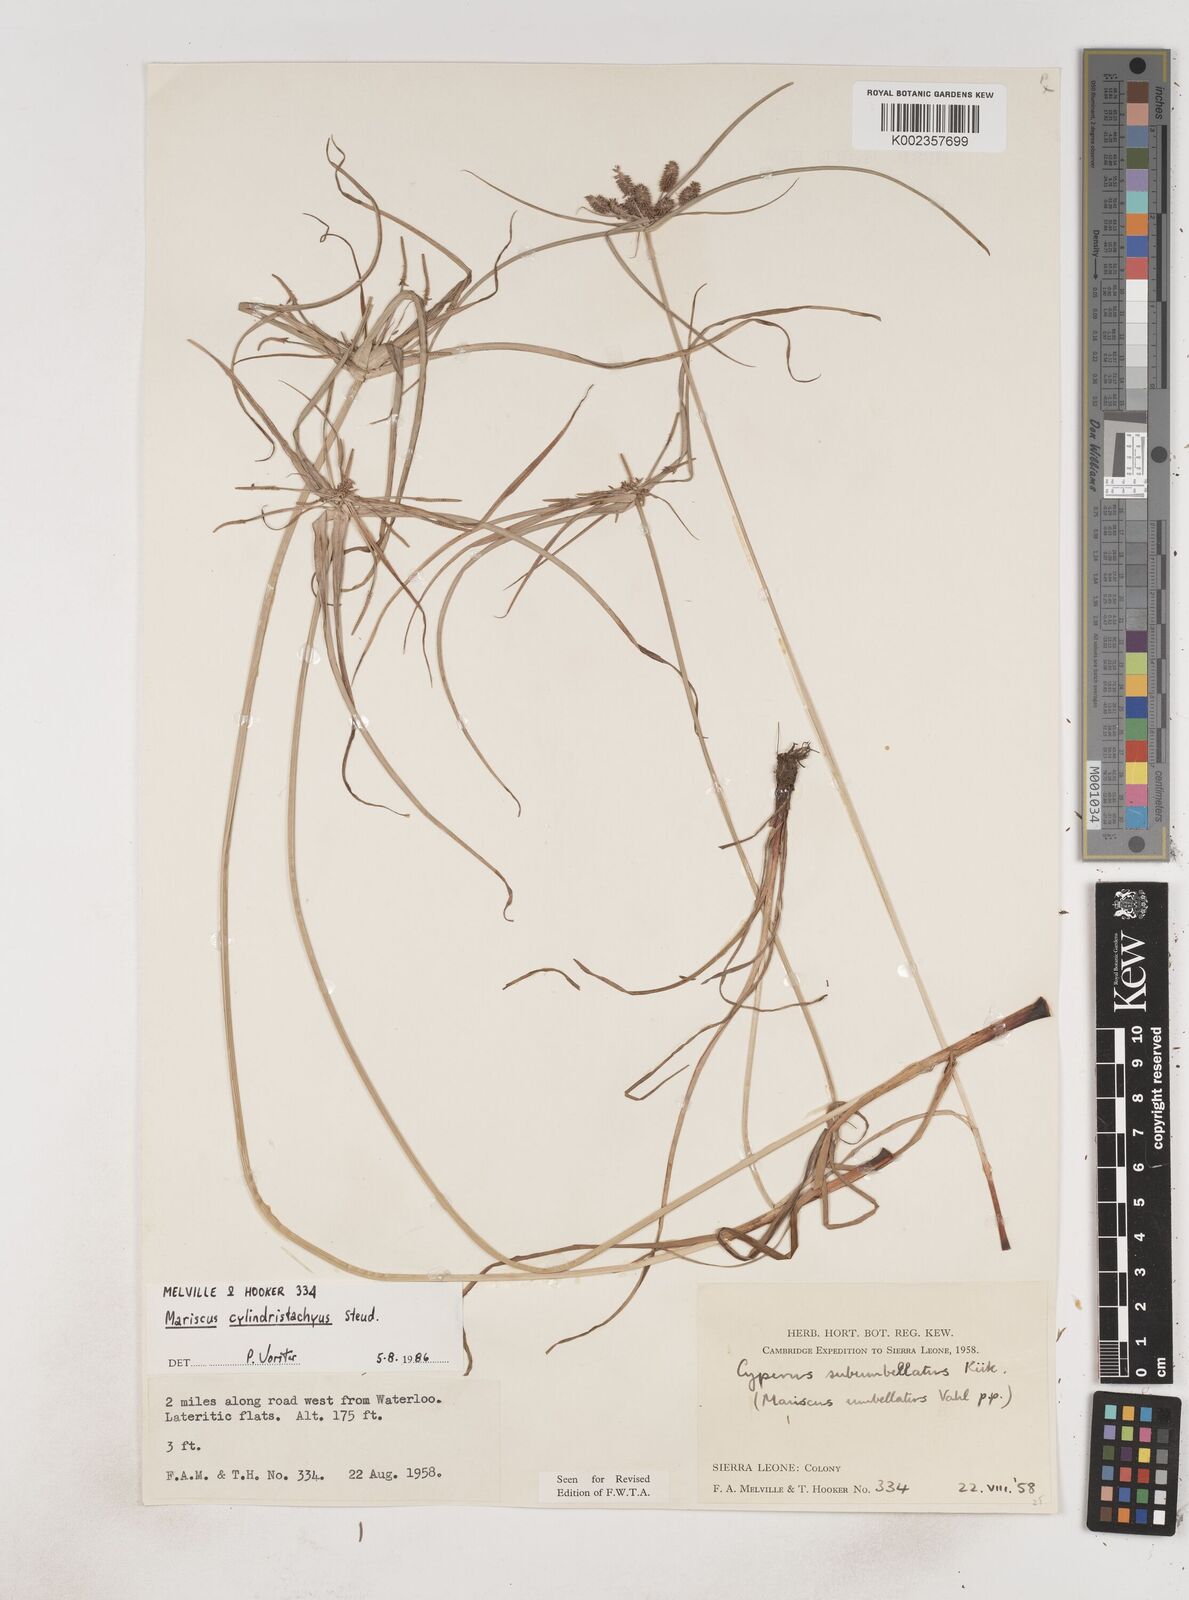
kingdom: Plantae
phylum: Tracheophyta
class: Liliopsida
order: Poales
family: Cyperaceae
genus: Cyperus
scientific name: Cyperus sublimis
